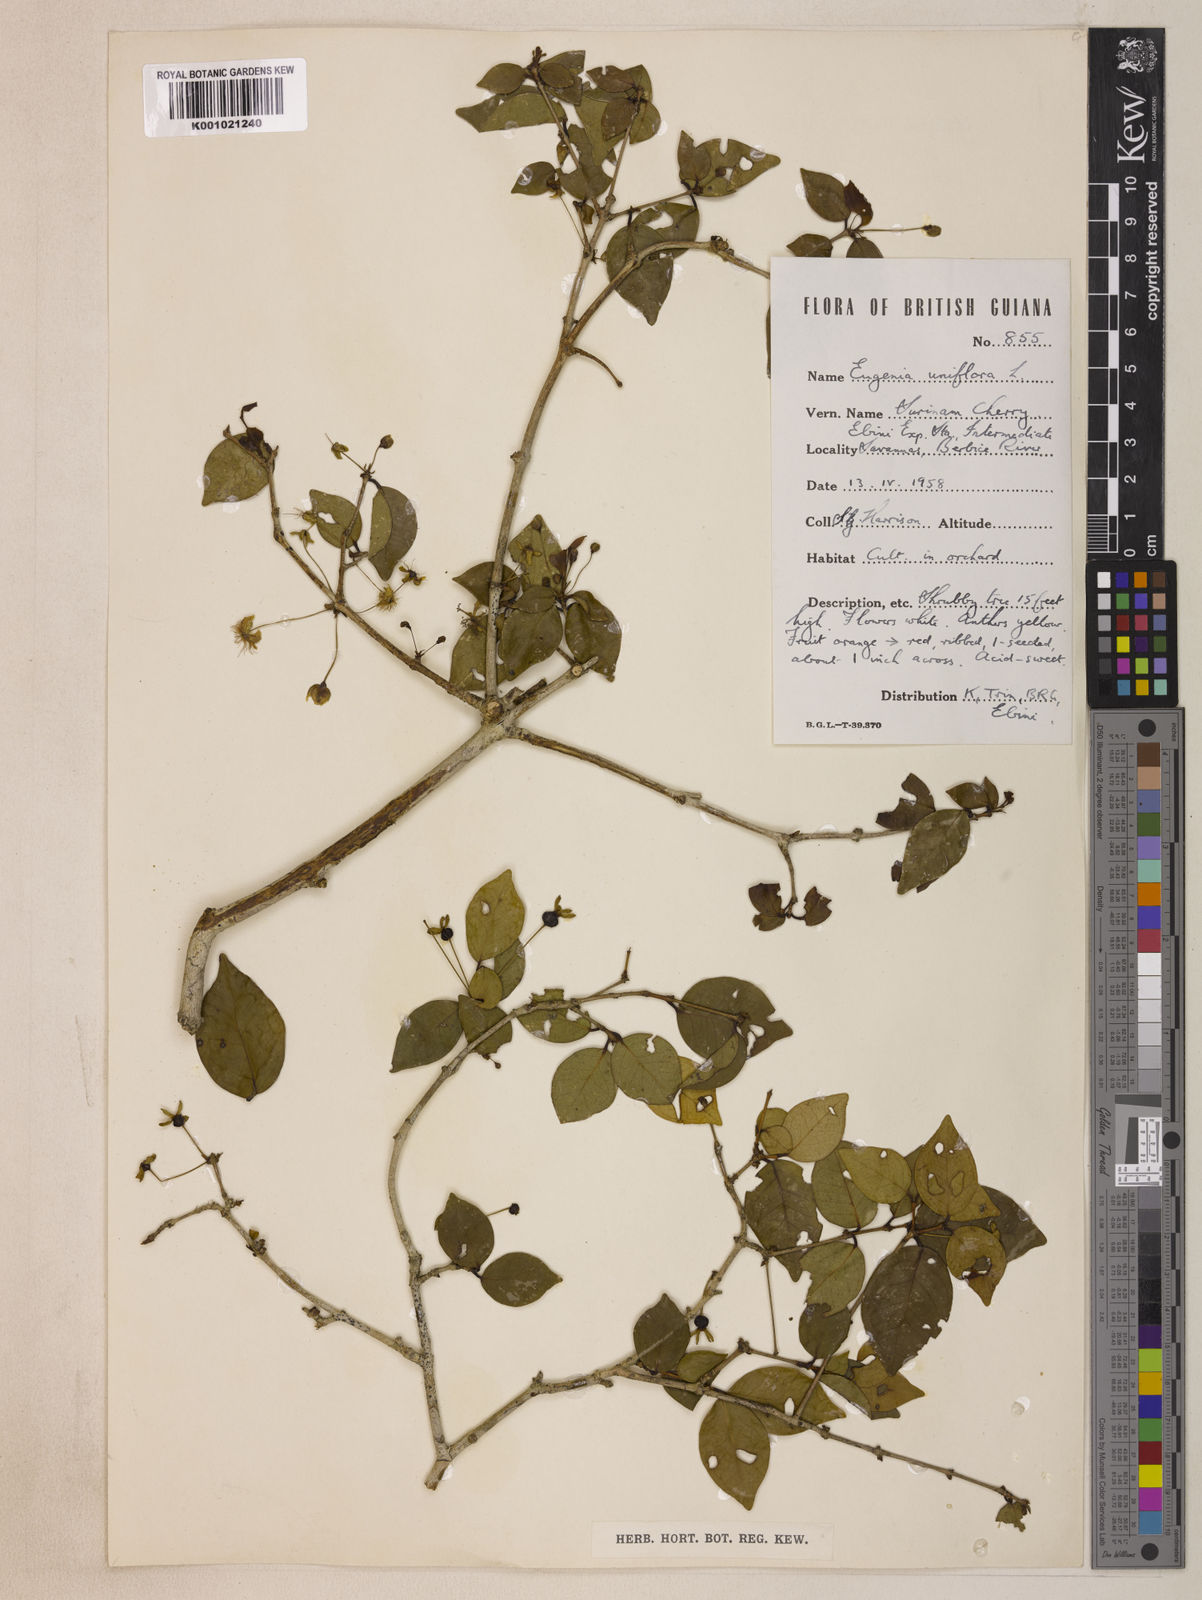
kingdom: Plantae
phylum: Tracheophyta
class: Magnoliopsida
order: Myrtales
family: Myrtaceae
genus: Eugenia
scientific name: Eugenia uniflora
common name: Surinam cherry
